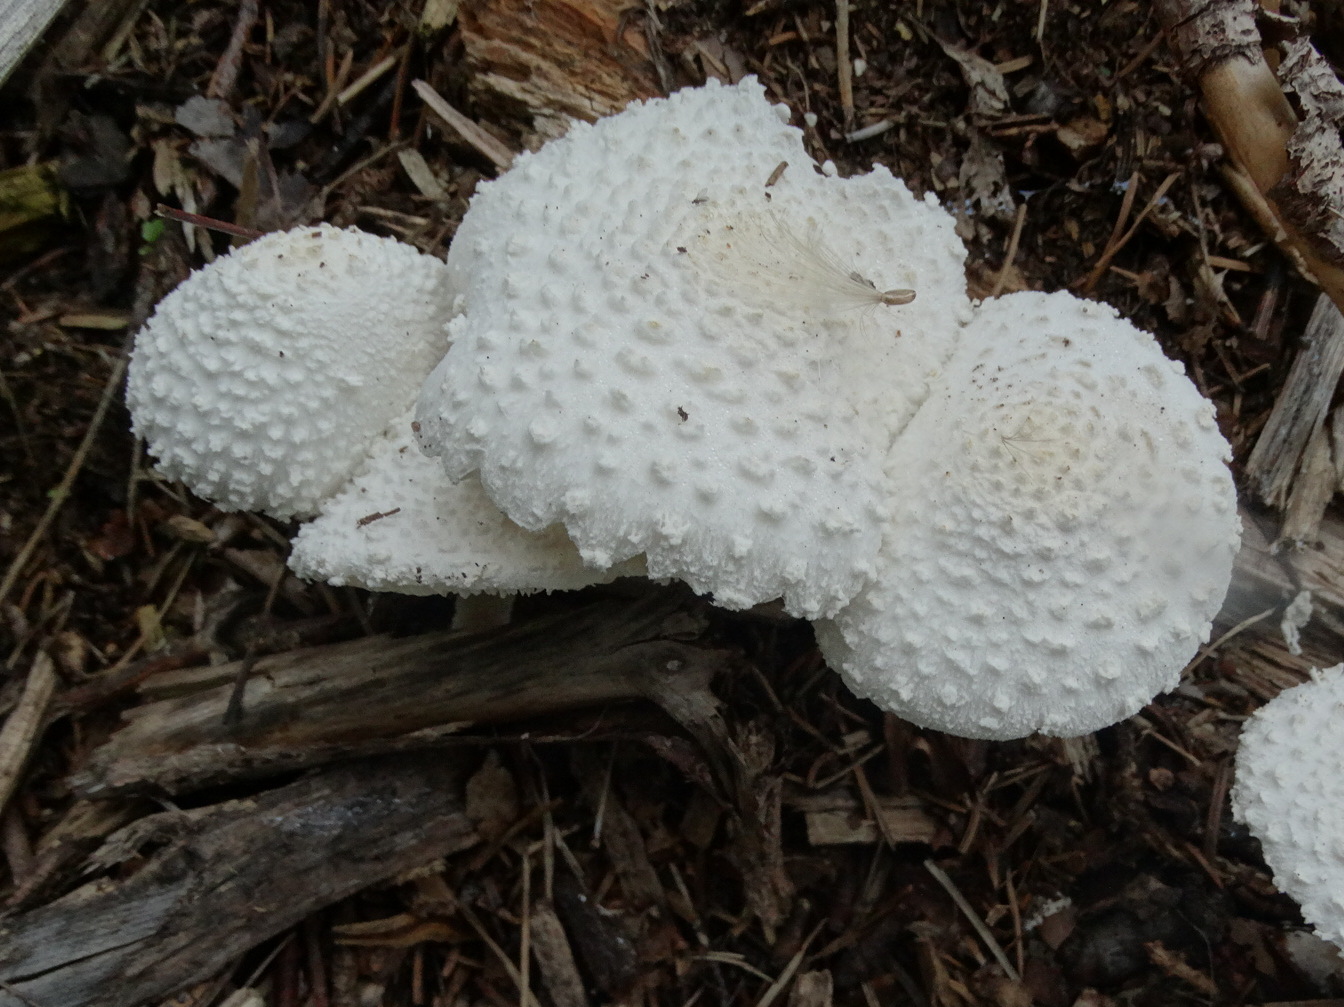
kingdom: Fungi
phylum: Basidiomycota
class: Agaricomycetes
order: Agaricales
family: Agaricaceae
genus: Leucoagaricus
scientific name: Leucoagaricus nympharum
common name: gran-silkehat
